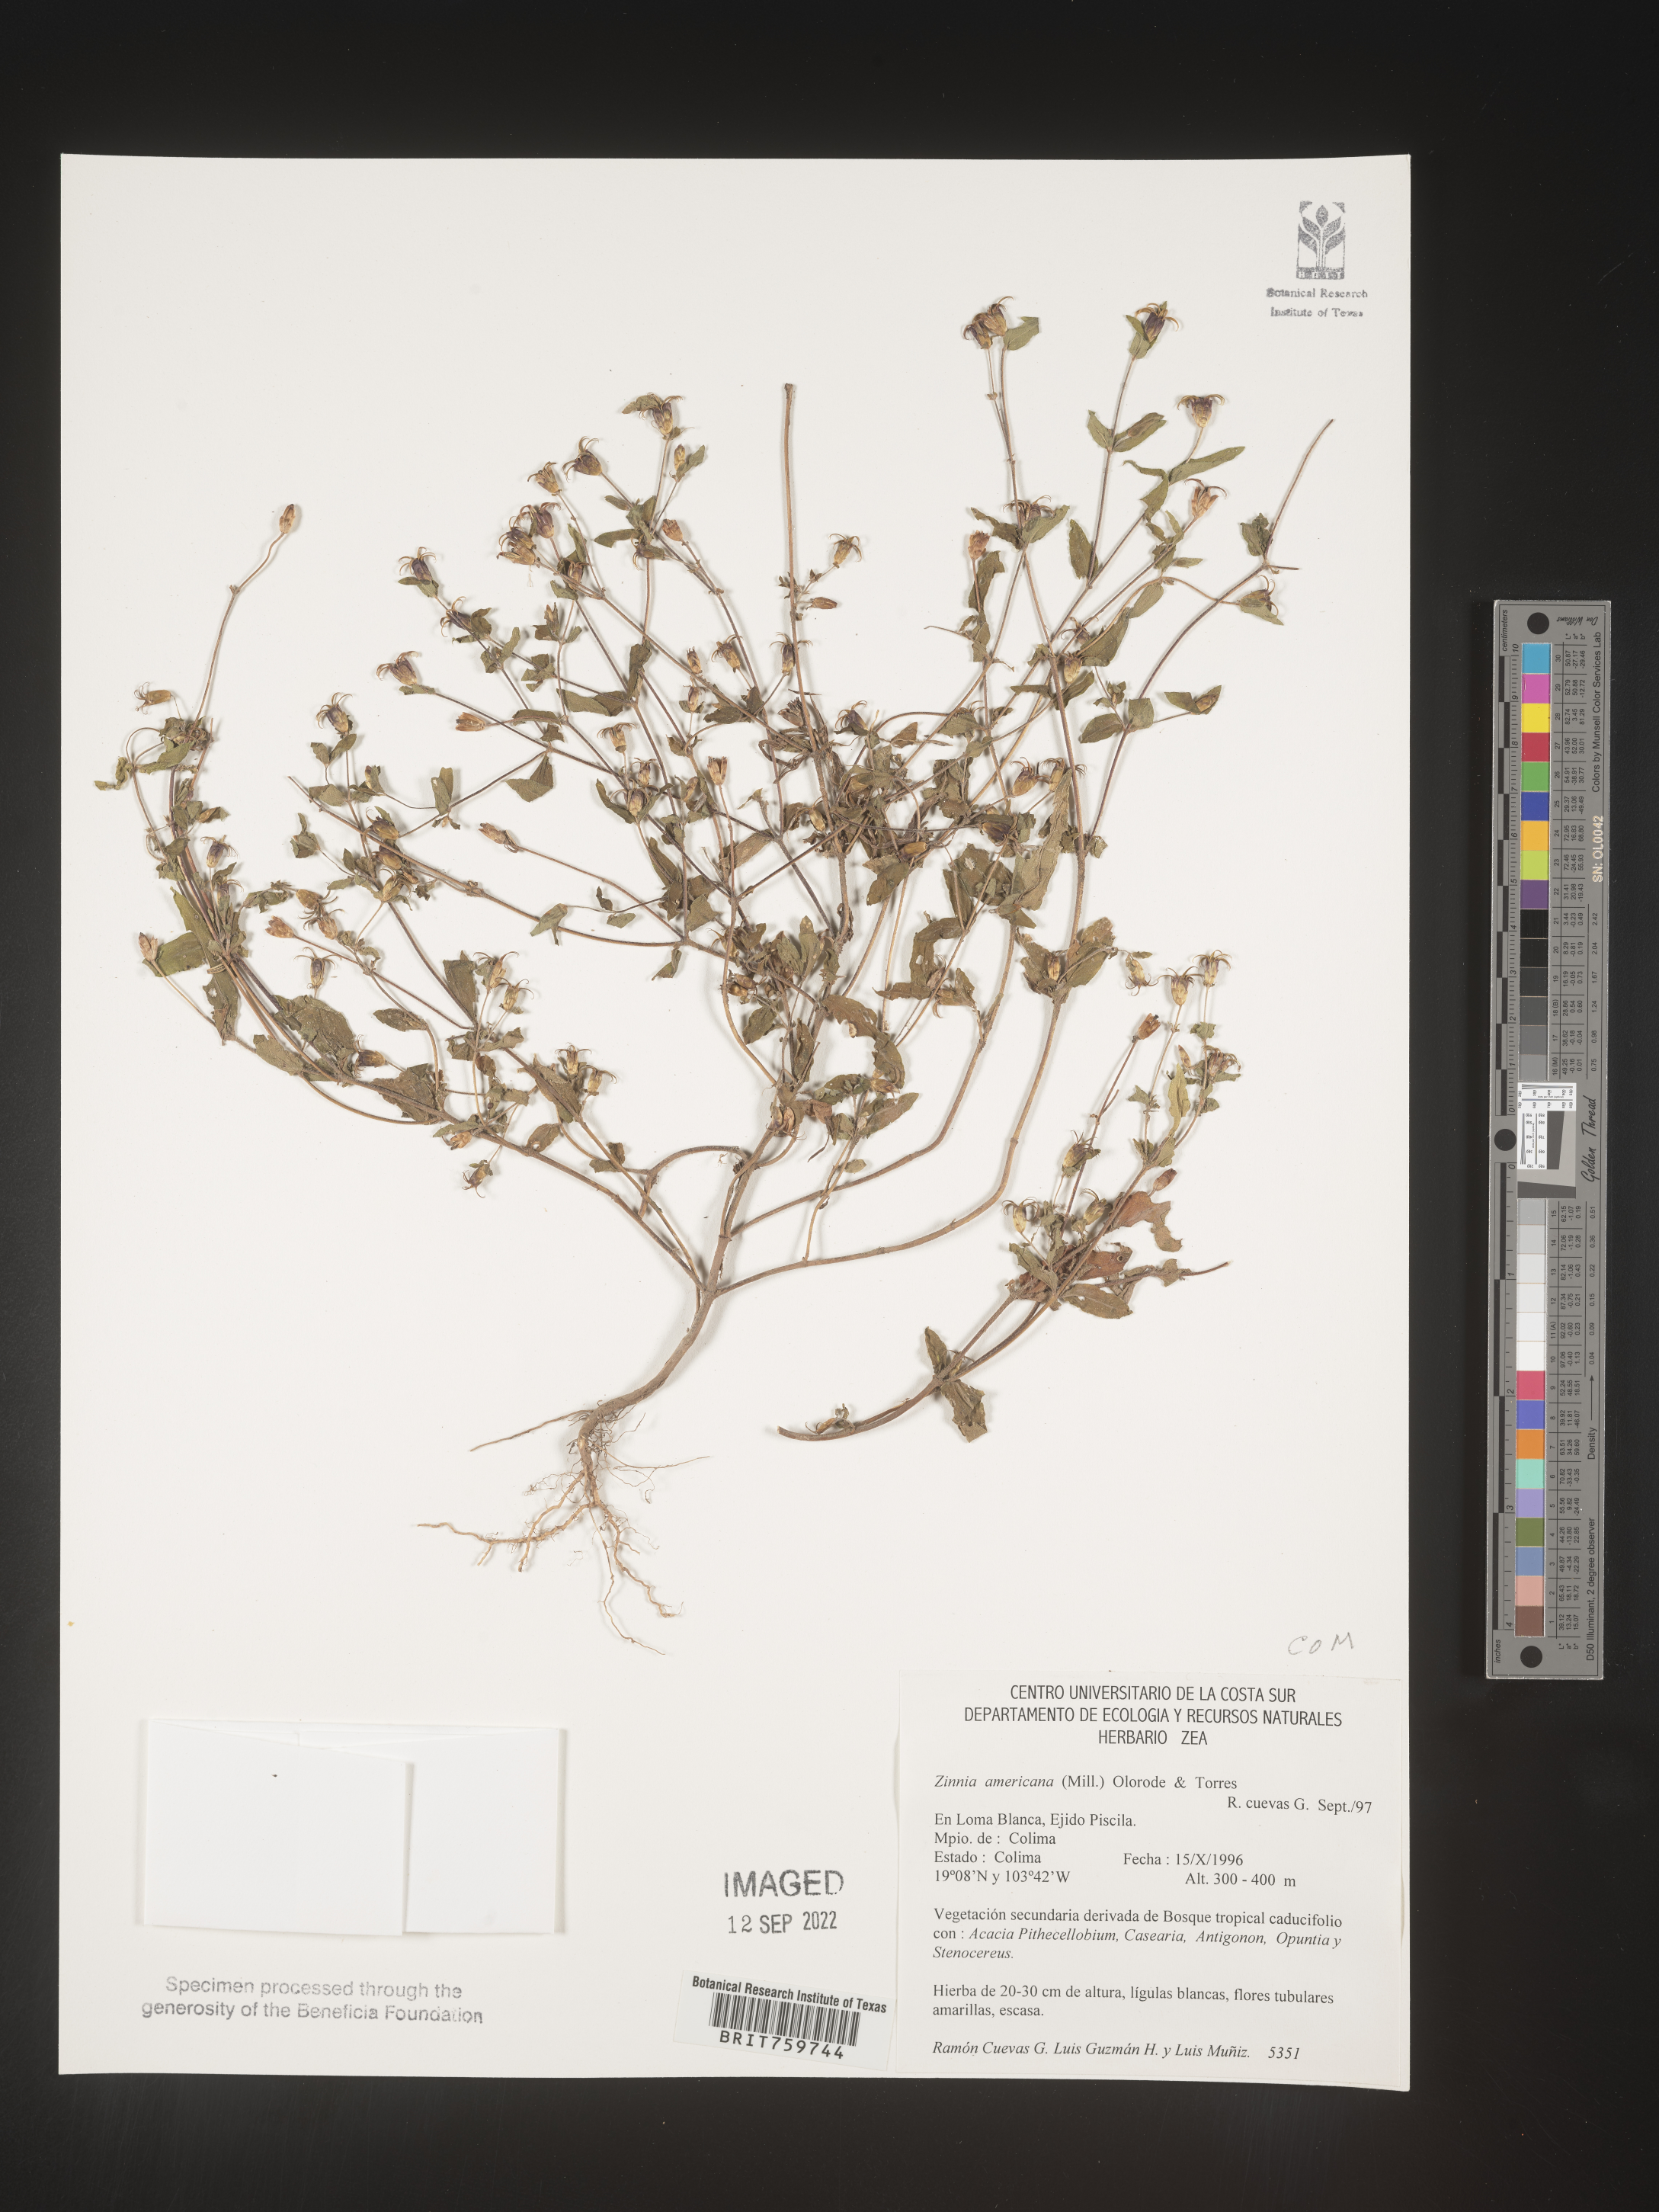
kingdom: Plantae
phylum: Tracheophyta
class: Magnoliopsida
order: Asterales
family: Asteraceae
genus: Zinnia
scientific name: Zinnia
